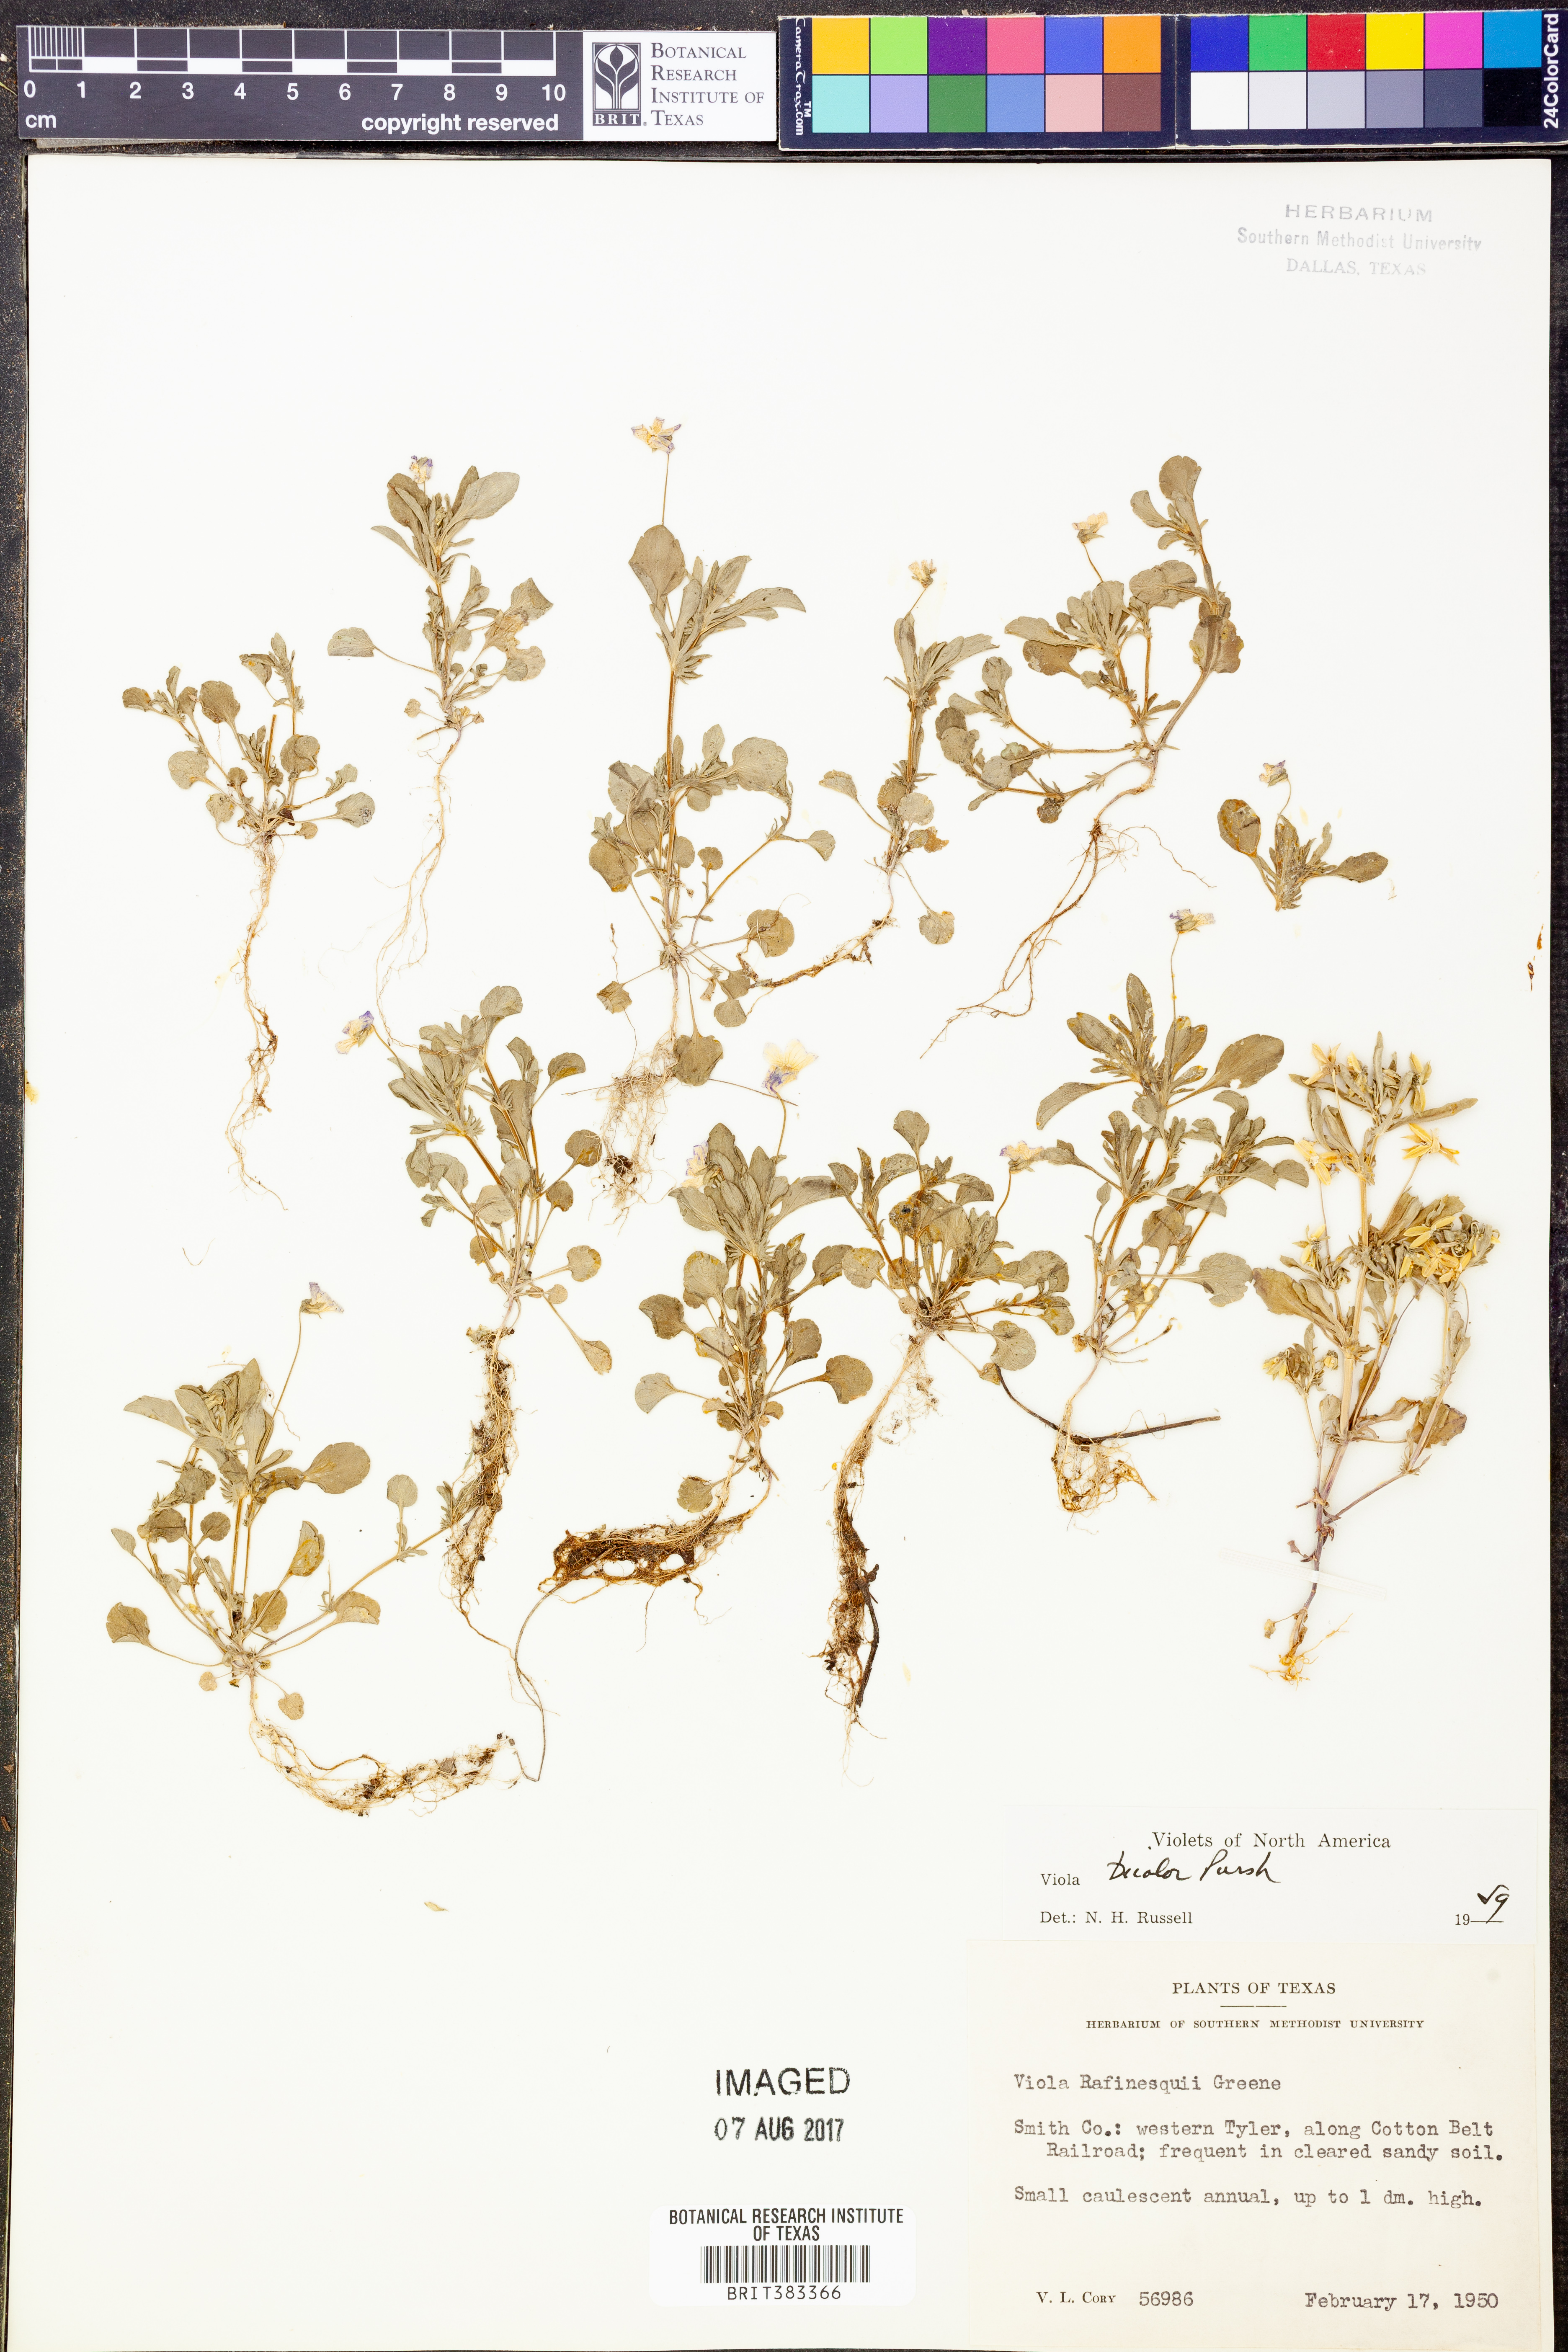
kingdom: Plantae
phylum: Tracheophyta
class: Magnoliopsida
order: Malpighiales
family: Violaceae
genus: Viola
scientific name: Viola rafinesquei
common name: American field pansy
